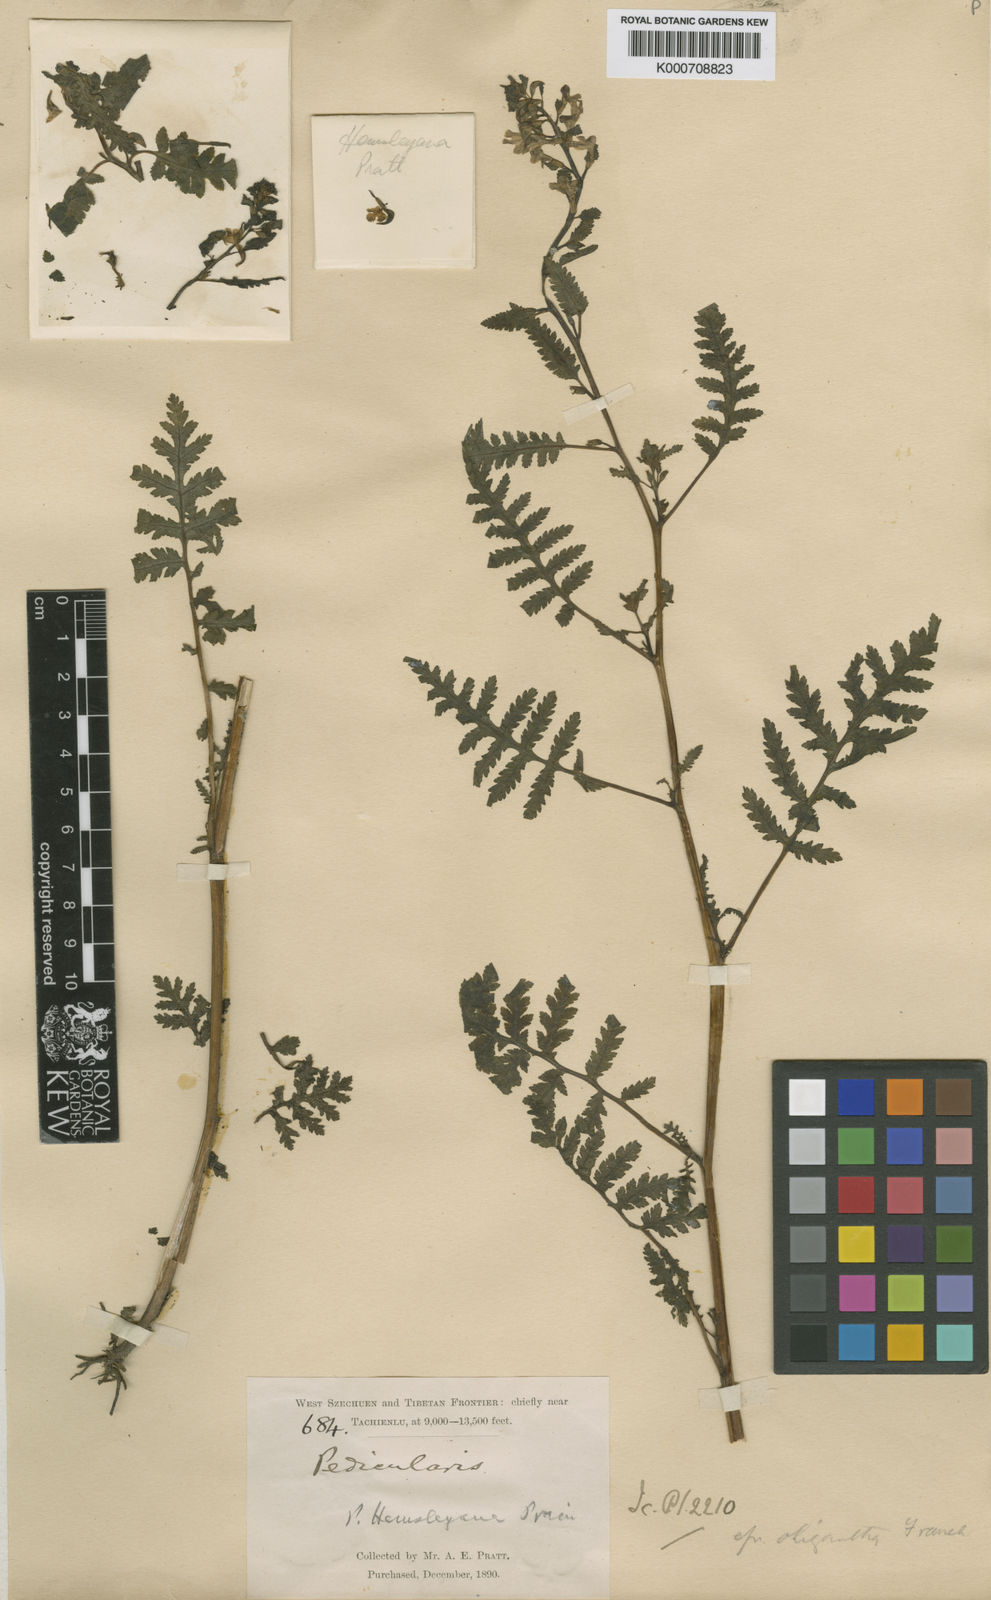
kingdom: Plantae
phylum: Tracheophyta
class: Magnoliopsida
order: Lamiales
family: Orobanchaceae
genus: Pedicularis
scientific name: Pedicularis hemsleyana
